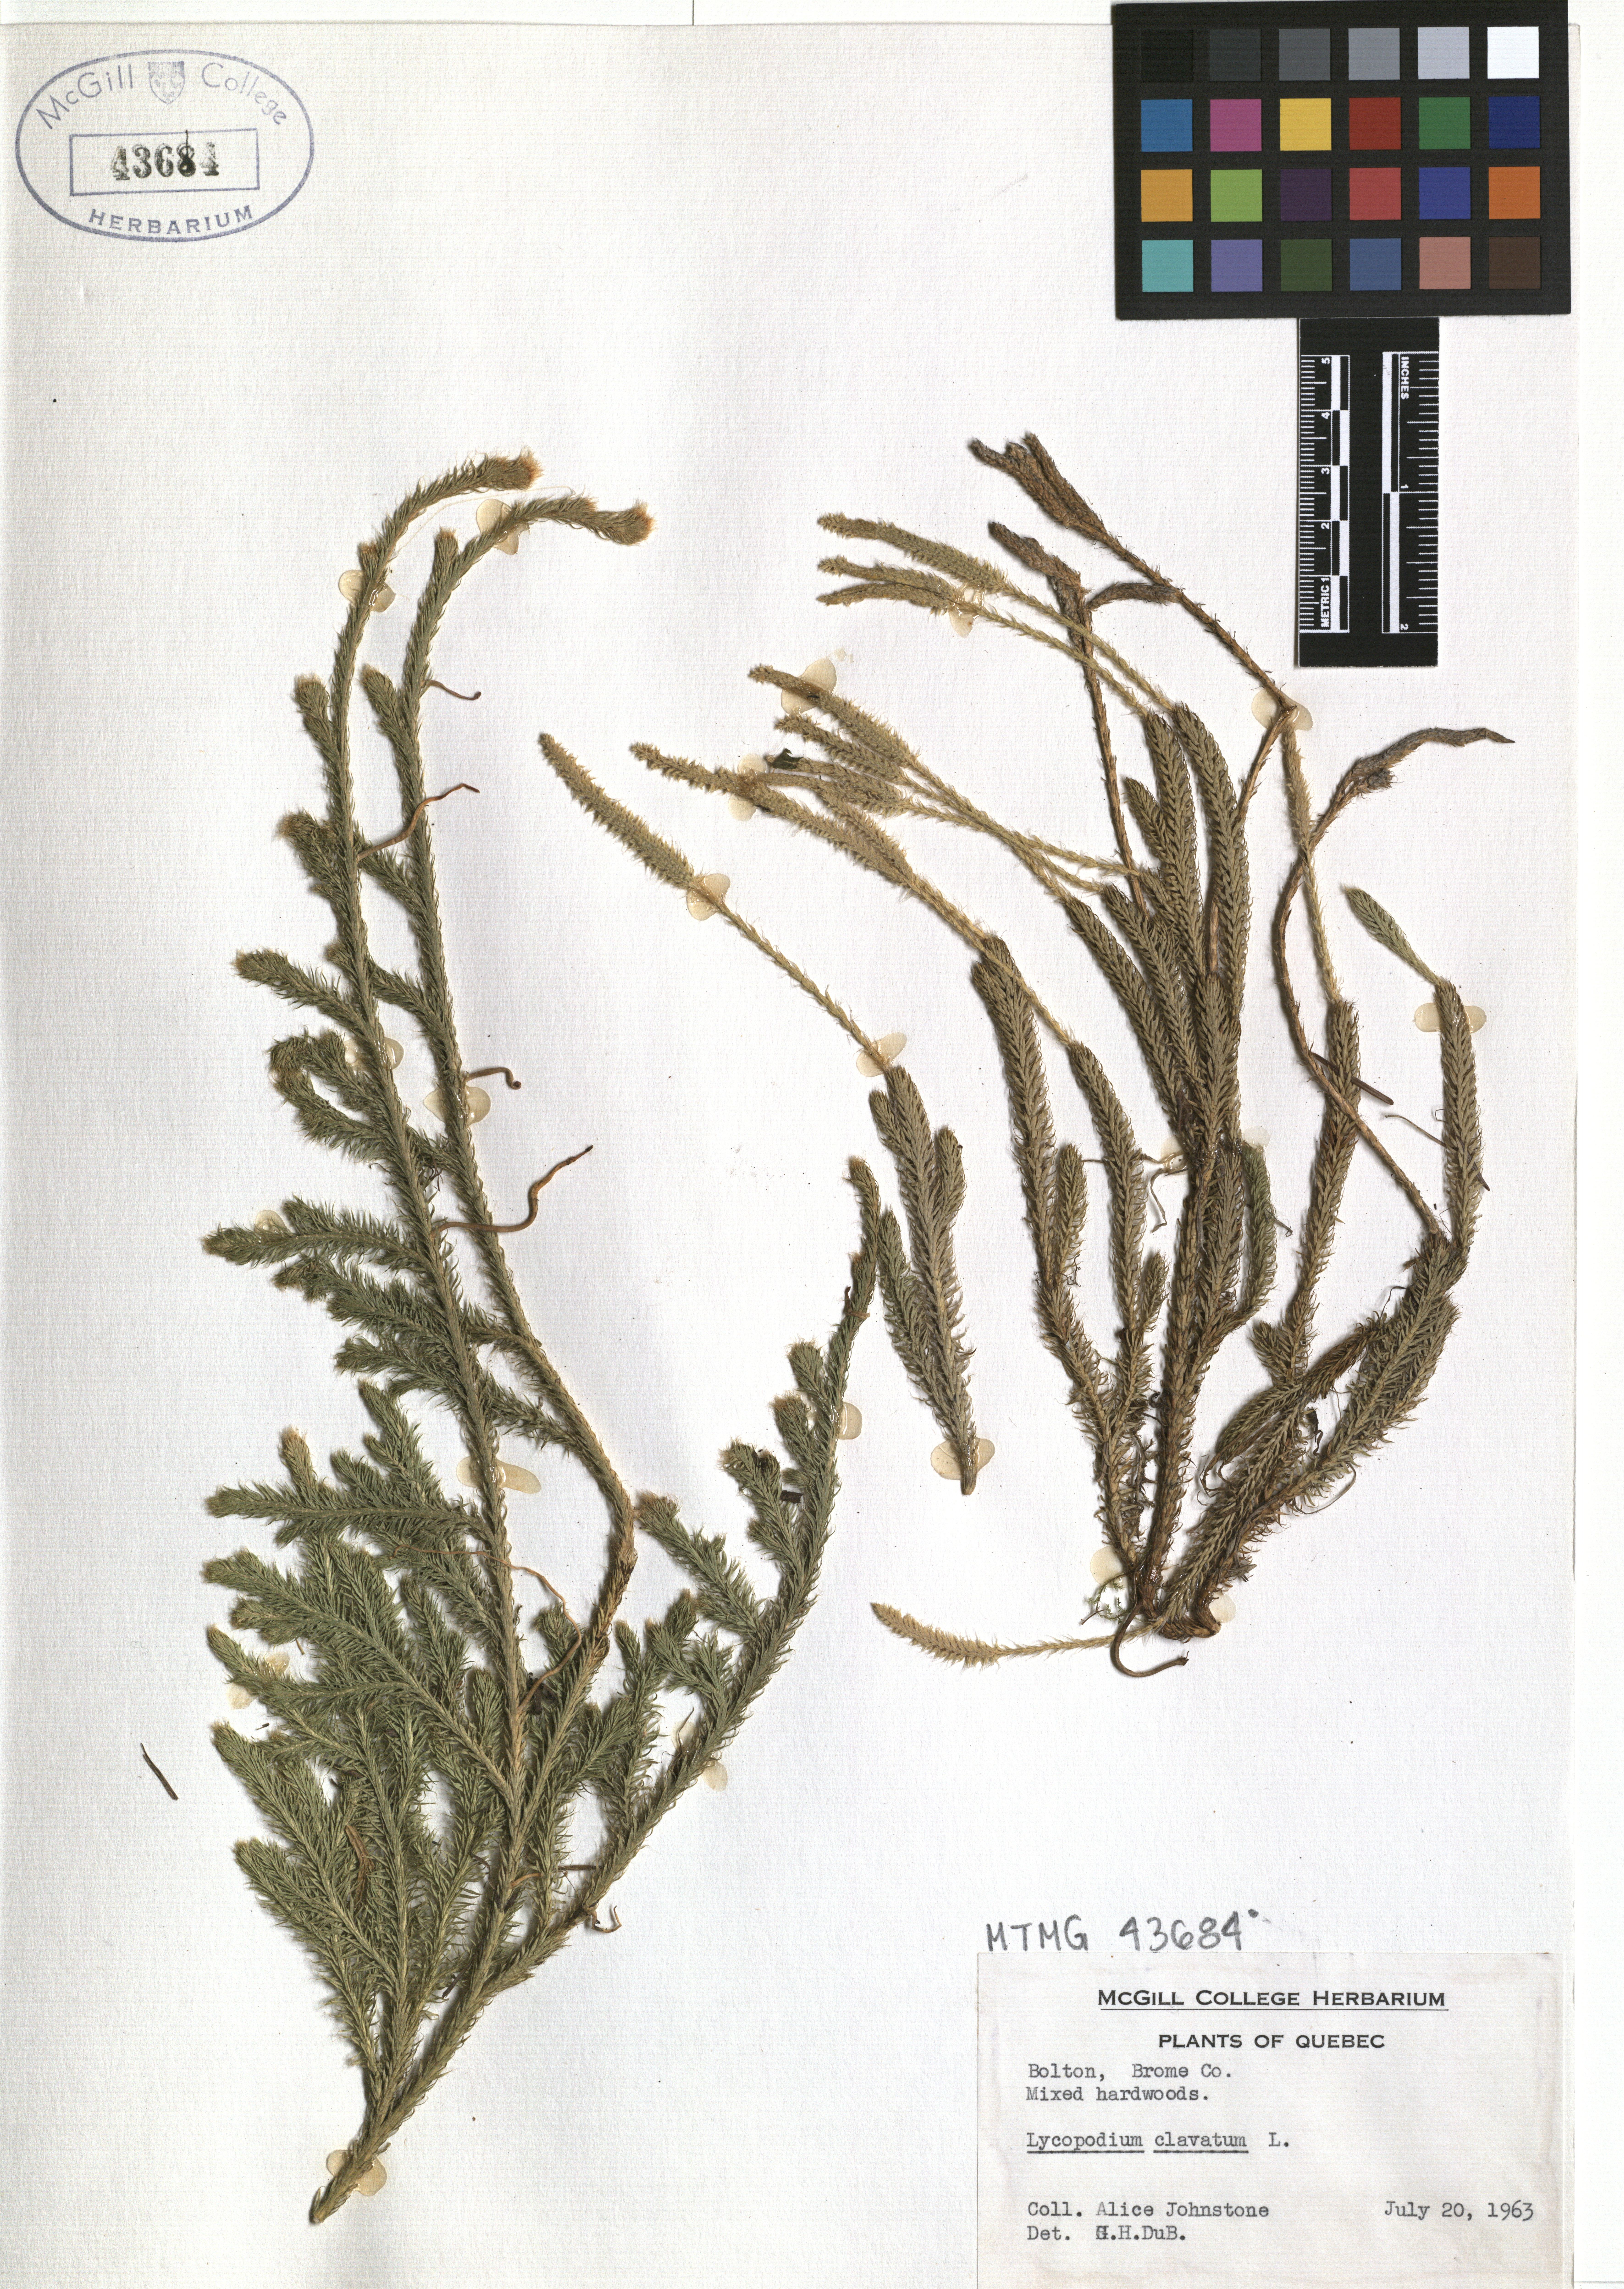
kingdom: Plantae
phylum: Tracheophyta
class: Lycopodiopsida
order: Lycopodiales
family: Lycopodiaceae
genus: Lycopodium
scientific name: Lycopodium clavatum
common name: Stag's-horn clubmoss
